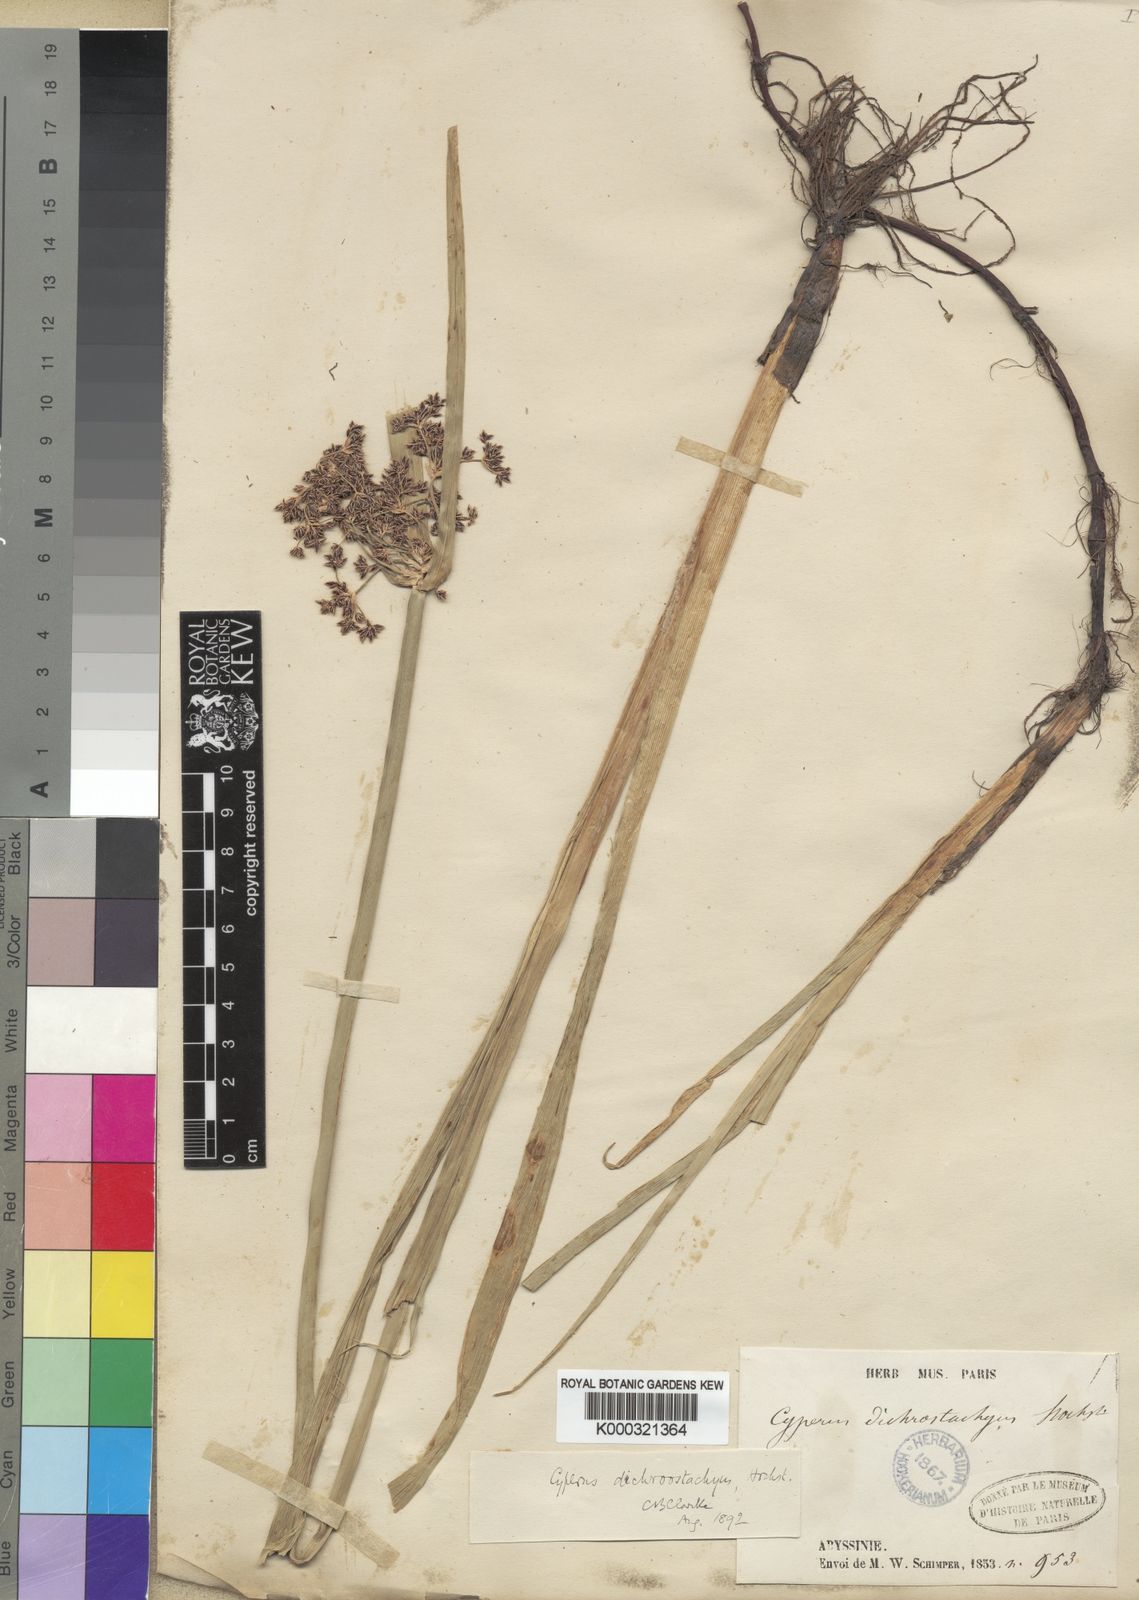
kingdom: Plantae
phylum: Tracheophyta
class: Liliopsida
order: Poales
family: Cyperaceae
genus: Cyperus
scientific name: Cyperus dichrostachyus
